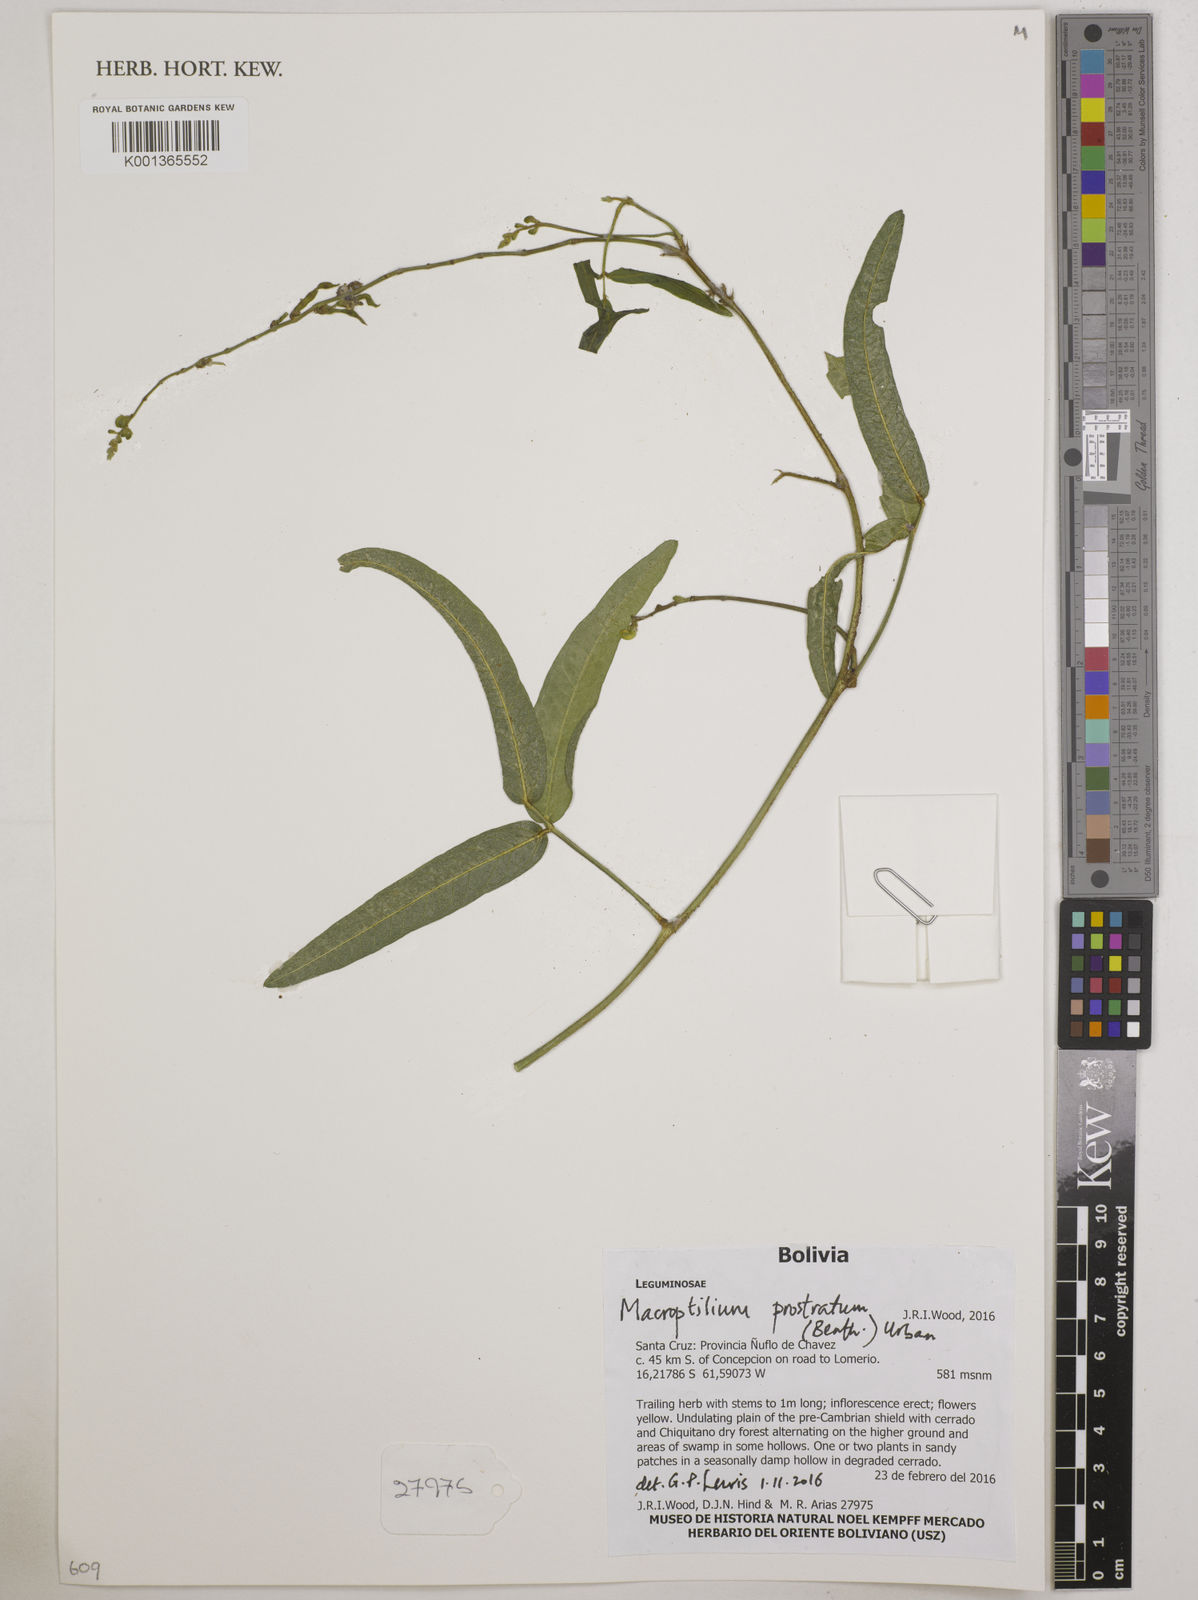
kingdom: Plantae
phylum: Tracheophyta
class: Magnoliopsida
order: Fabales
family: Fabaceae
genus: Macroptilium
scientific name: Macroptilium prostratum
